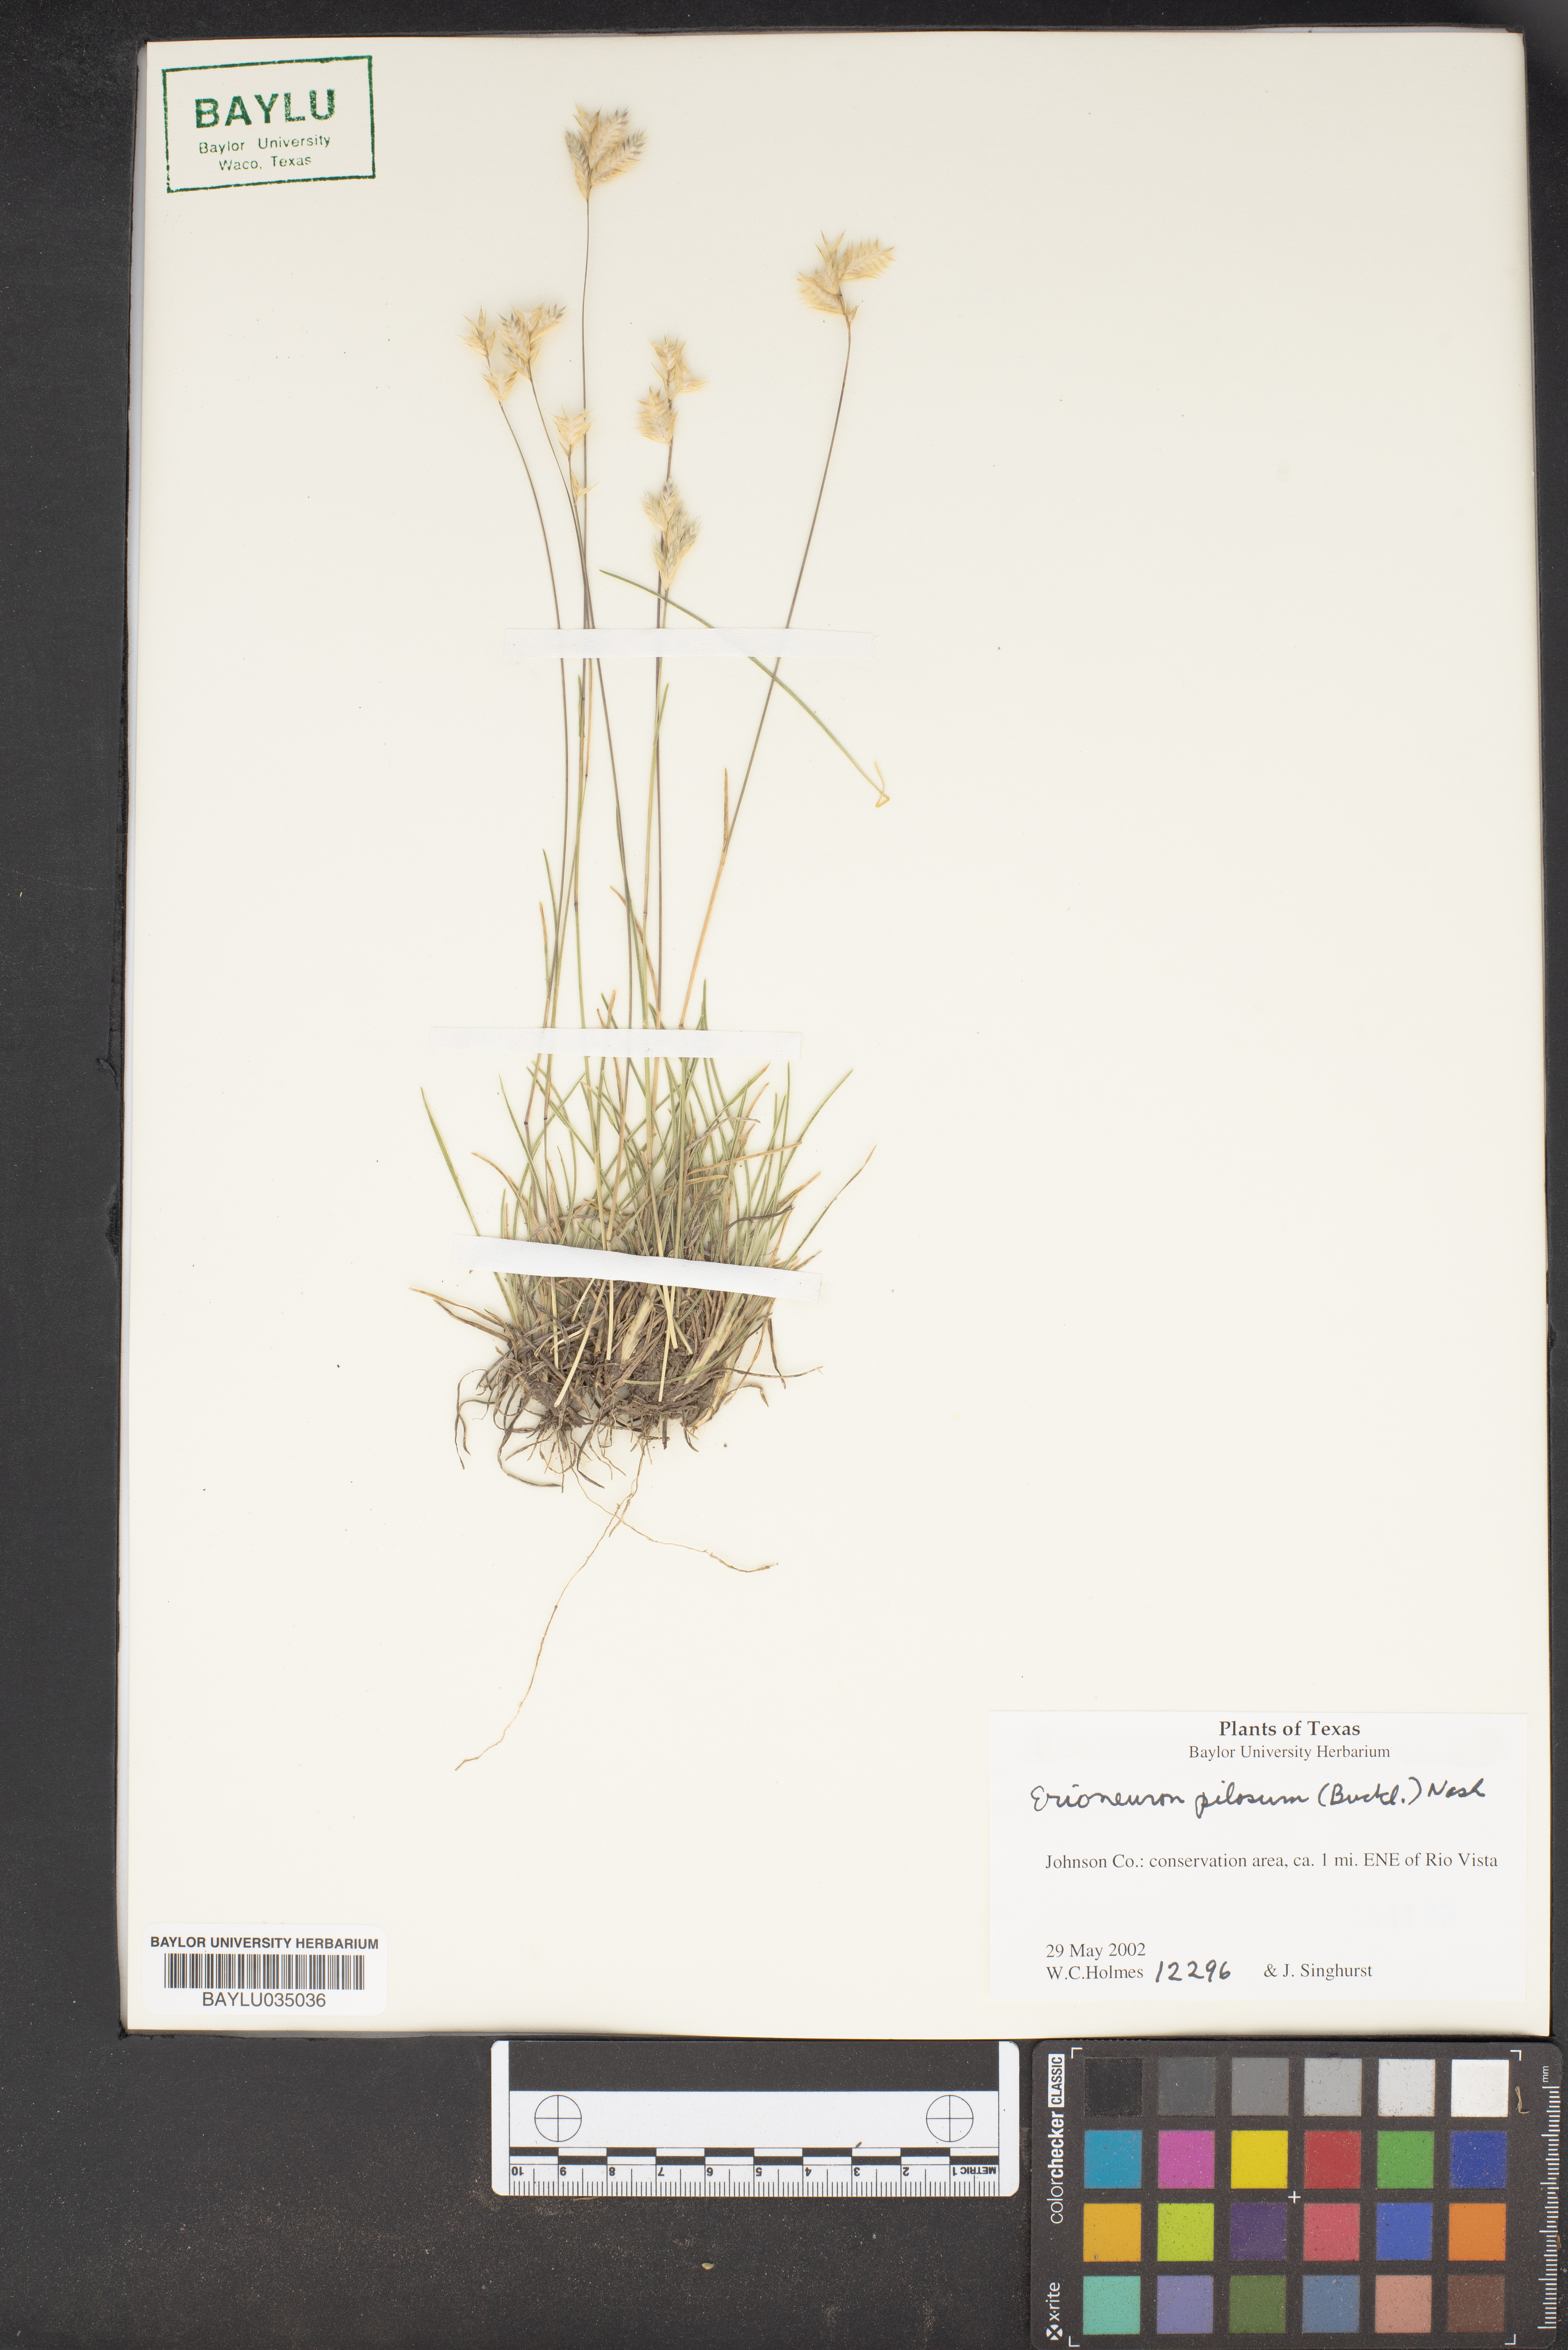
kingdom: Plantae
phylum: Tracheophyta
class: Liliopsida
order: Poales
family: Poaceae
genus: Erioneuron
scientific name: Erioneuron pilosum
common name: Hairy woolly grass
